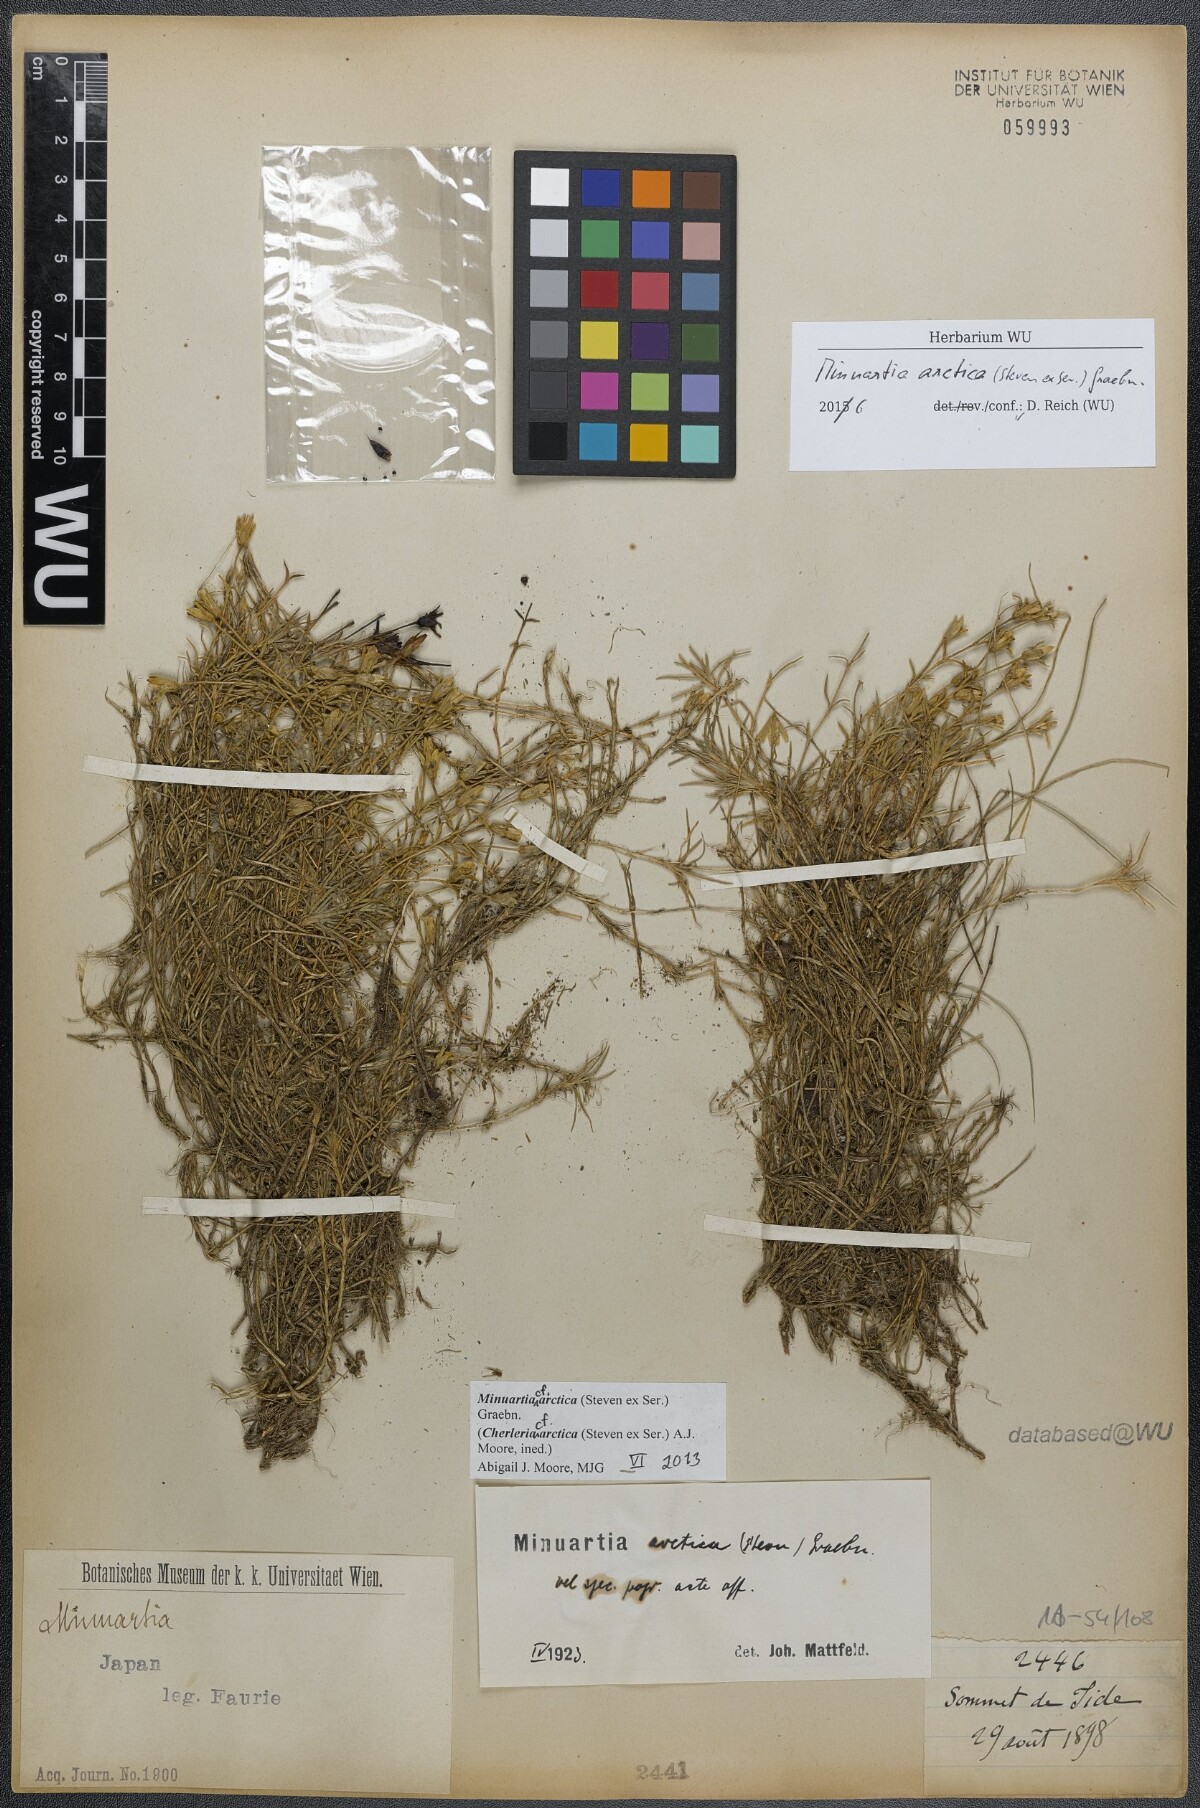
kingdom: Plantae
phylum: Tracheophyta
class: Magnoliopsida
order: Caryophyllales
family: Caryophyllaceae
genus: Cherleria
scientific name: Cherleria arctica
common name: Arctic sandwort
